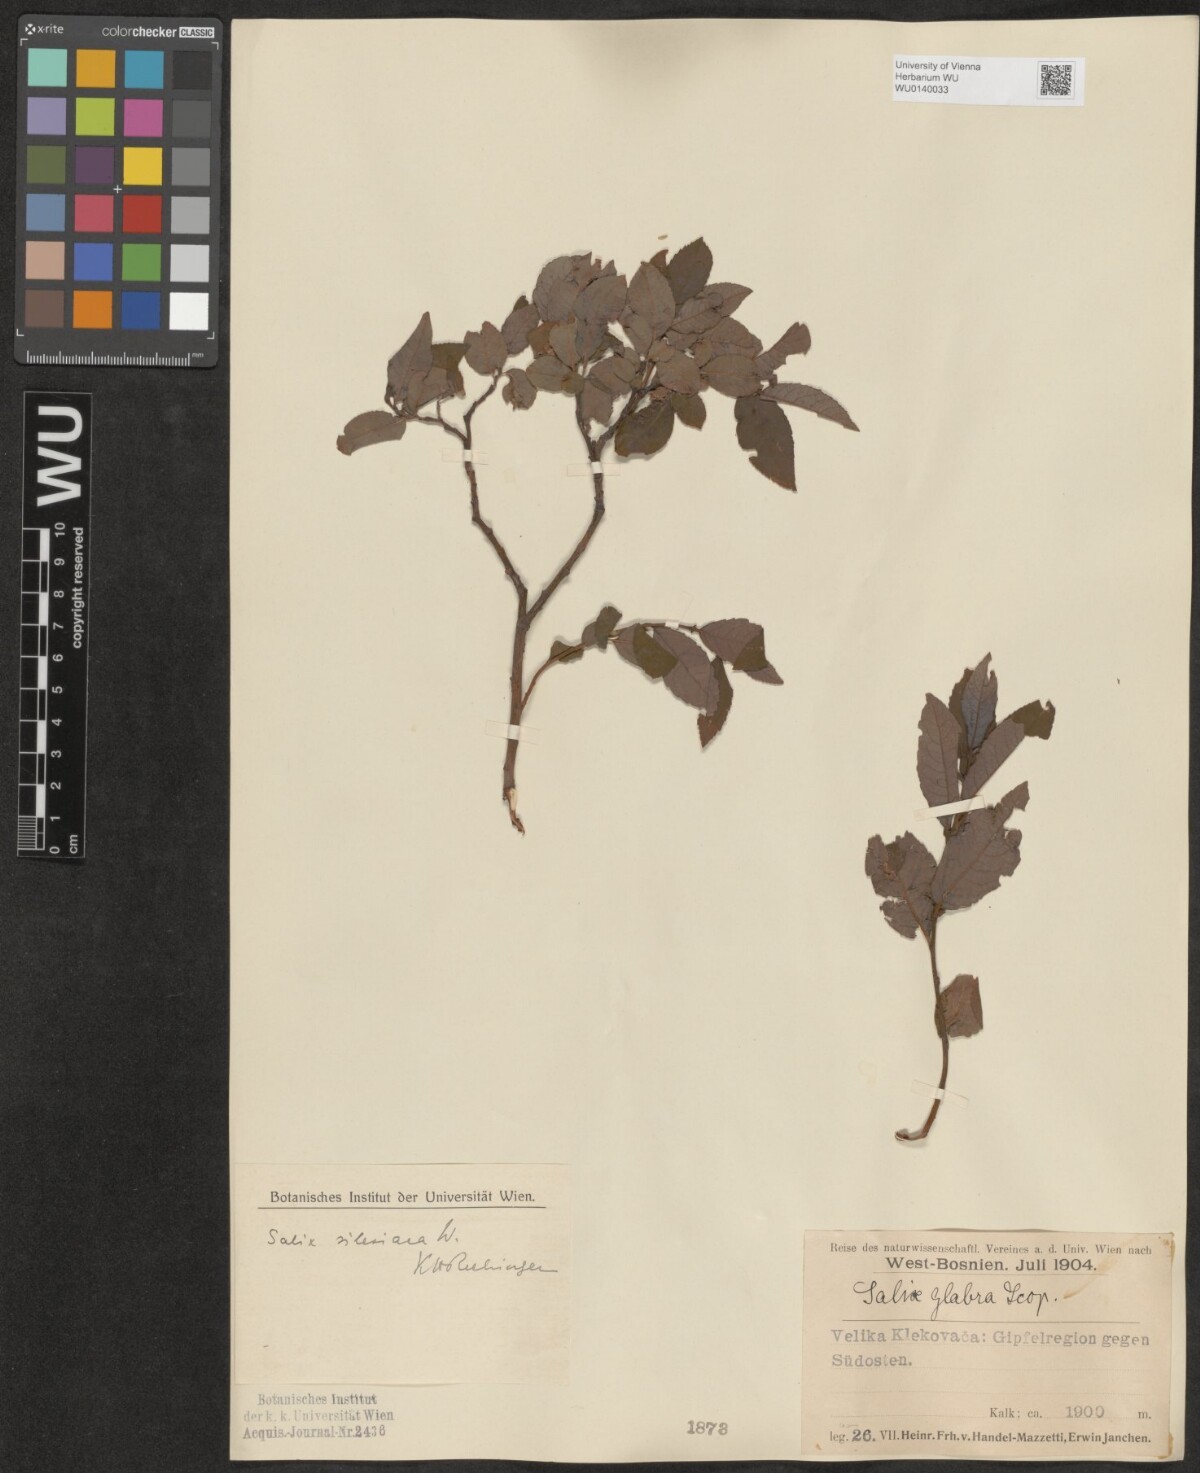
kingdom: Plantae
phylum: Tracheophyta
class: Magnoliopsida
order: Malpighiales
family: Salicaceae
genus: Salix
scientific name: Salix silesiaca
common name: Silesian willow
